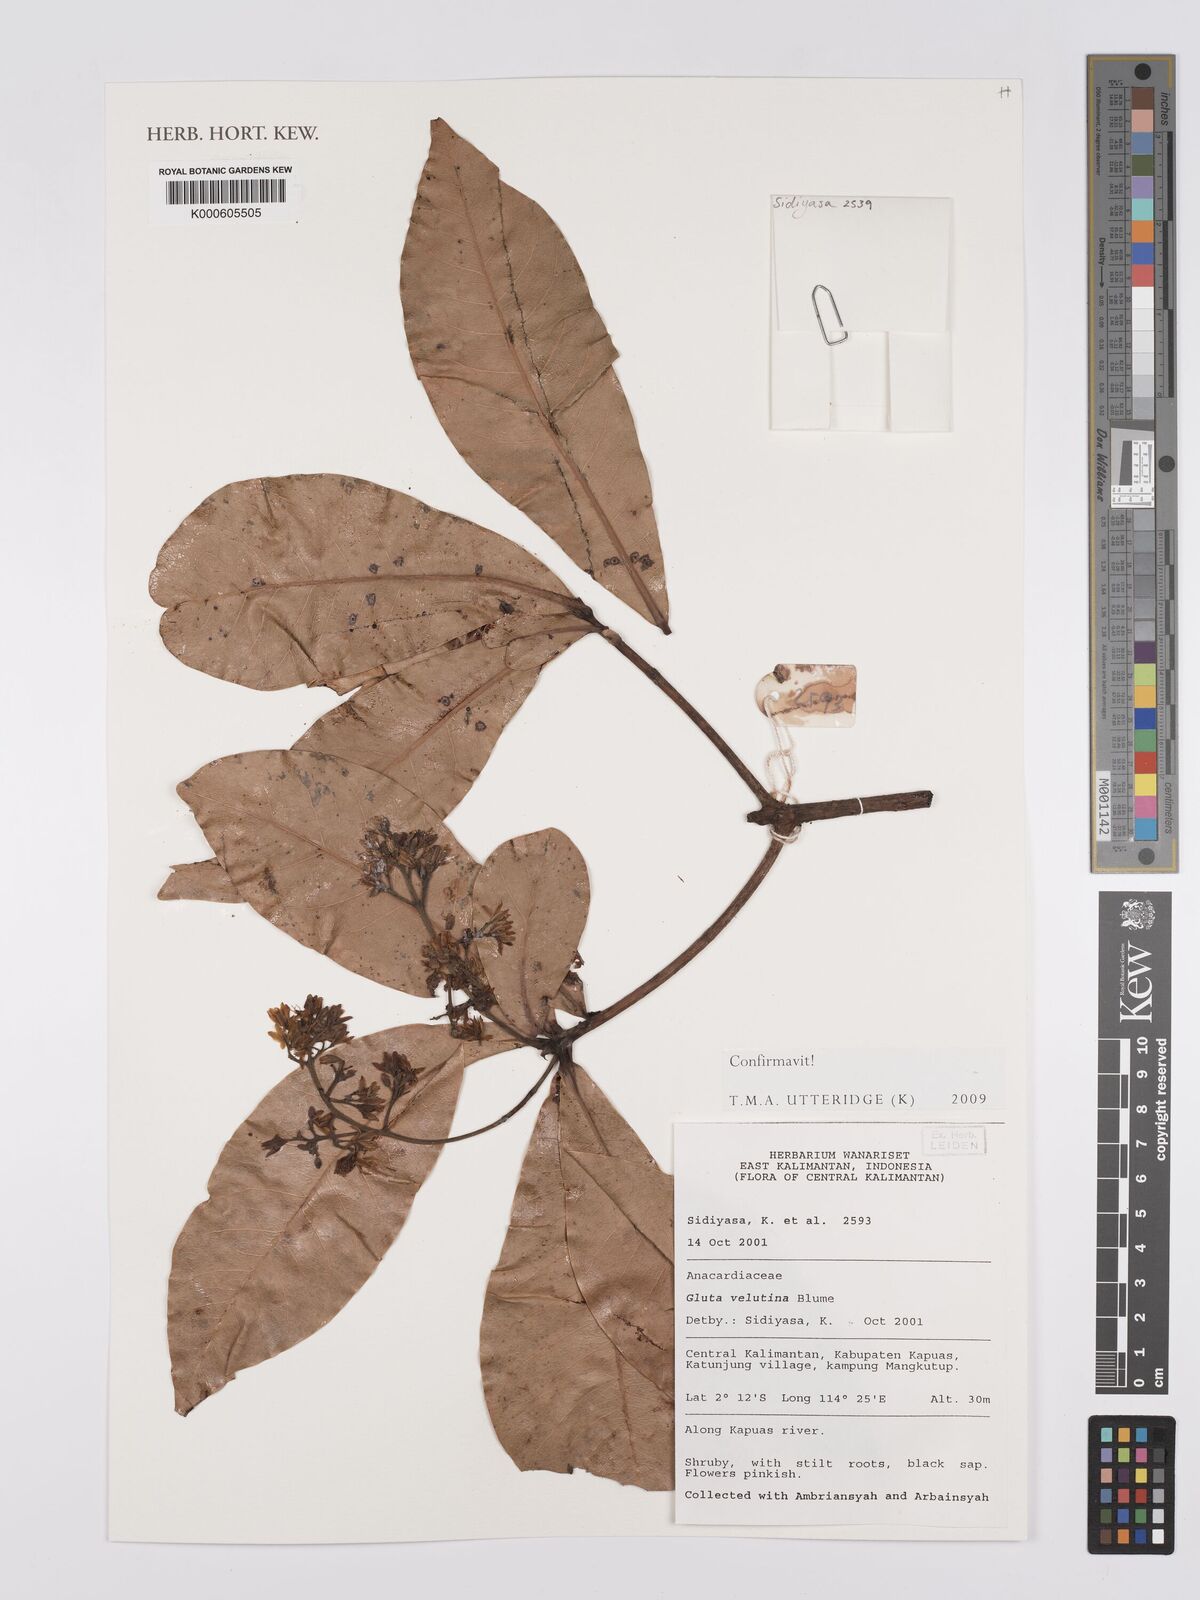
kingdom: Plantae
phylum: Tracheophyta
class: Magnoliopsida
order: Sapindales
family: Anacardiaceae
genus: Gluta
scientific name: Gluta velutina
